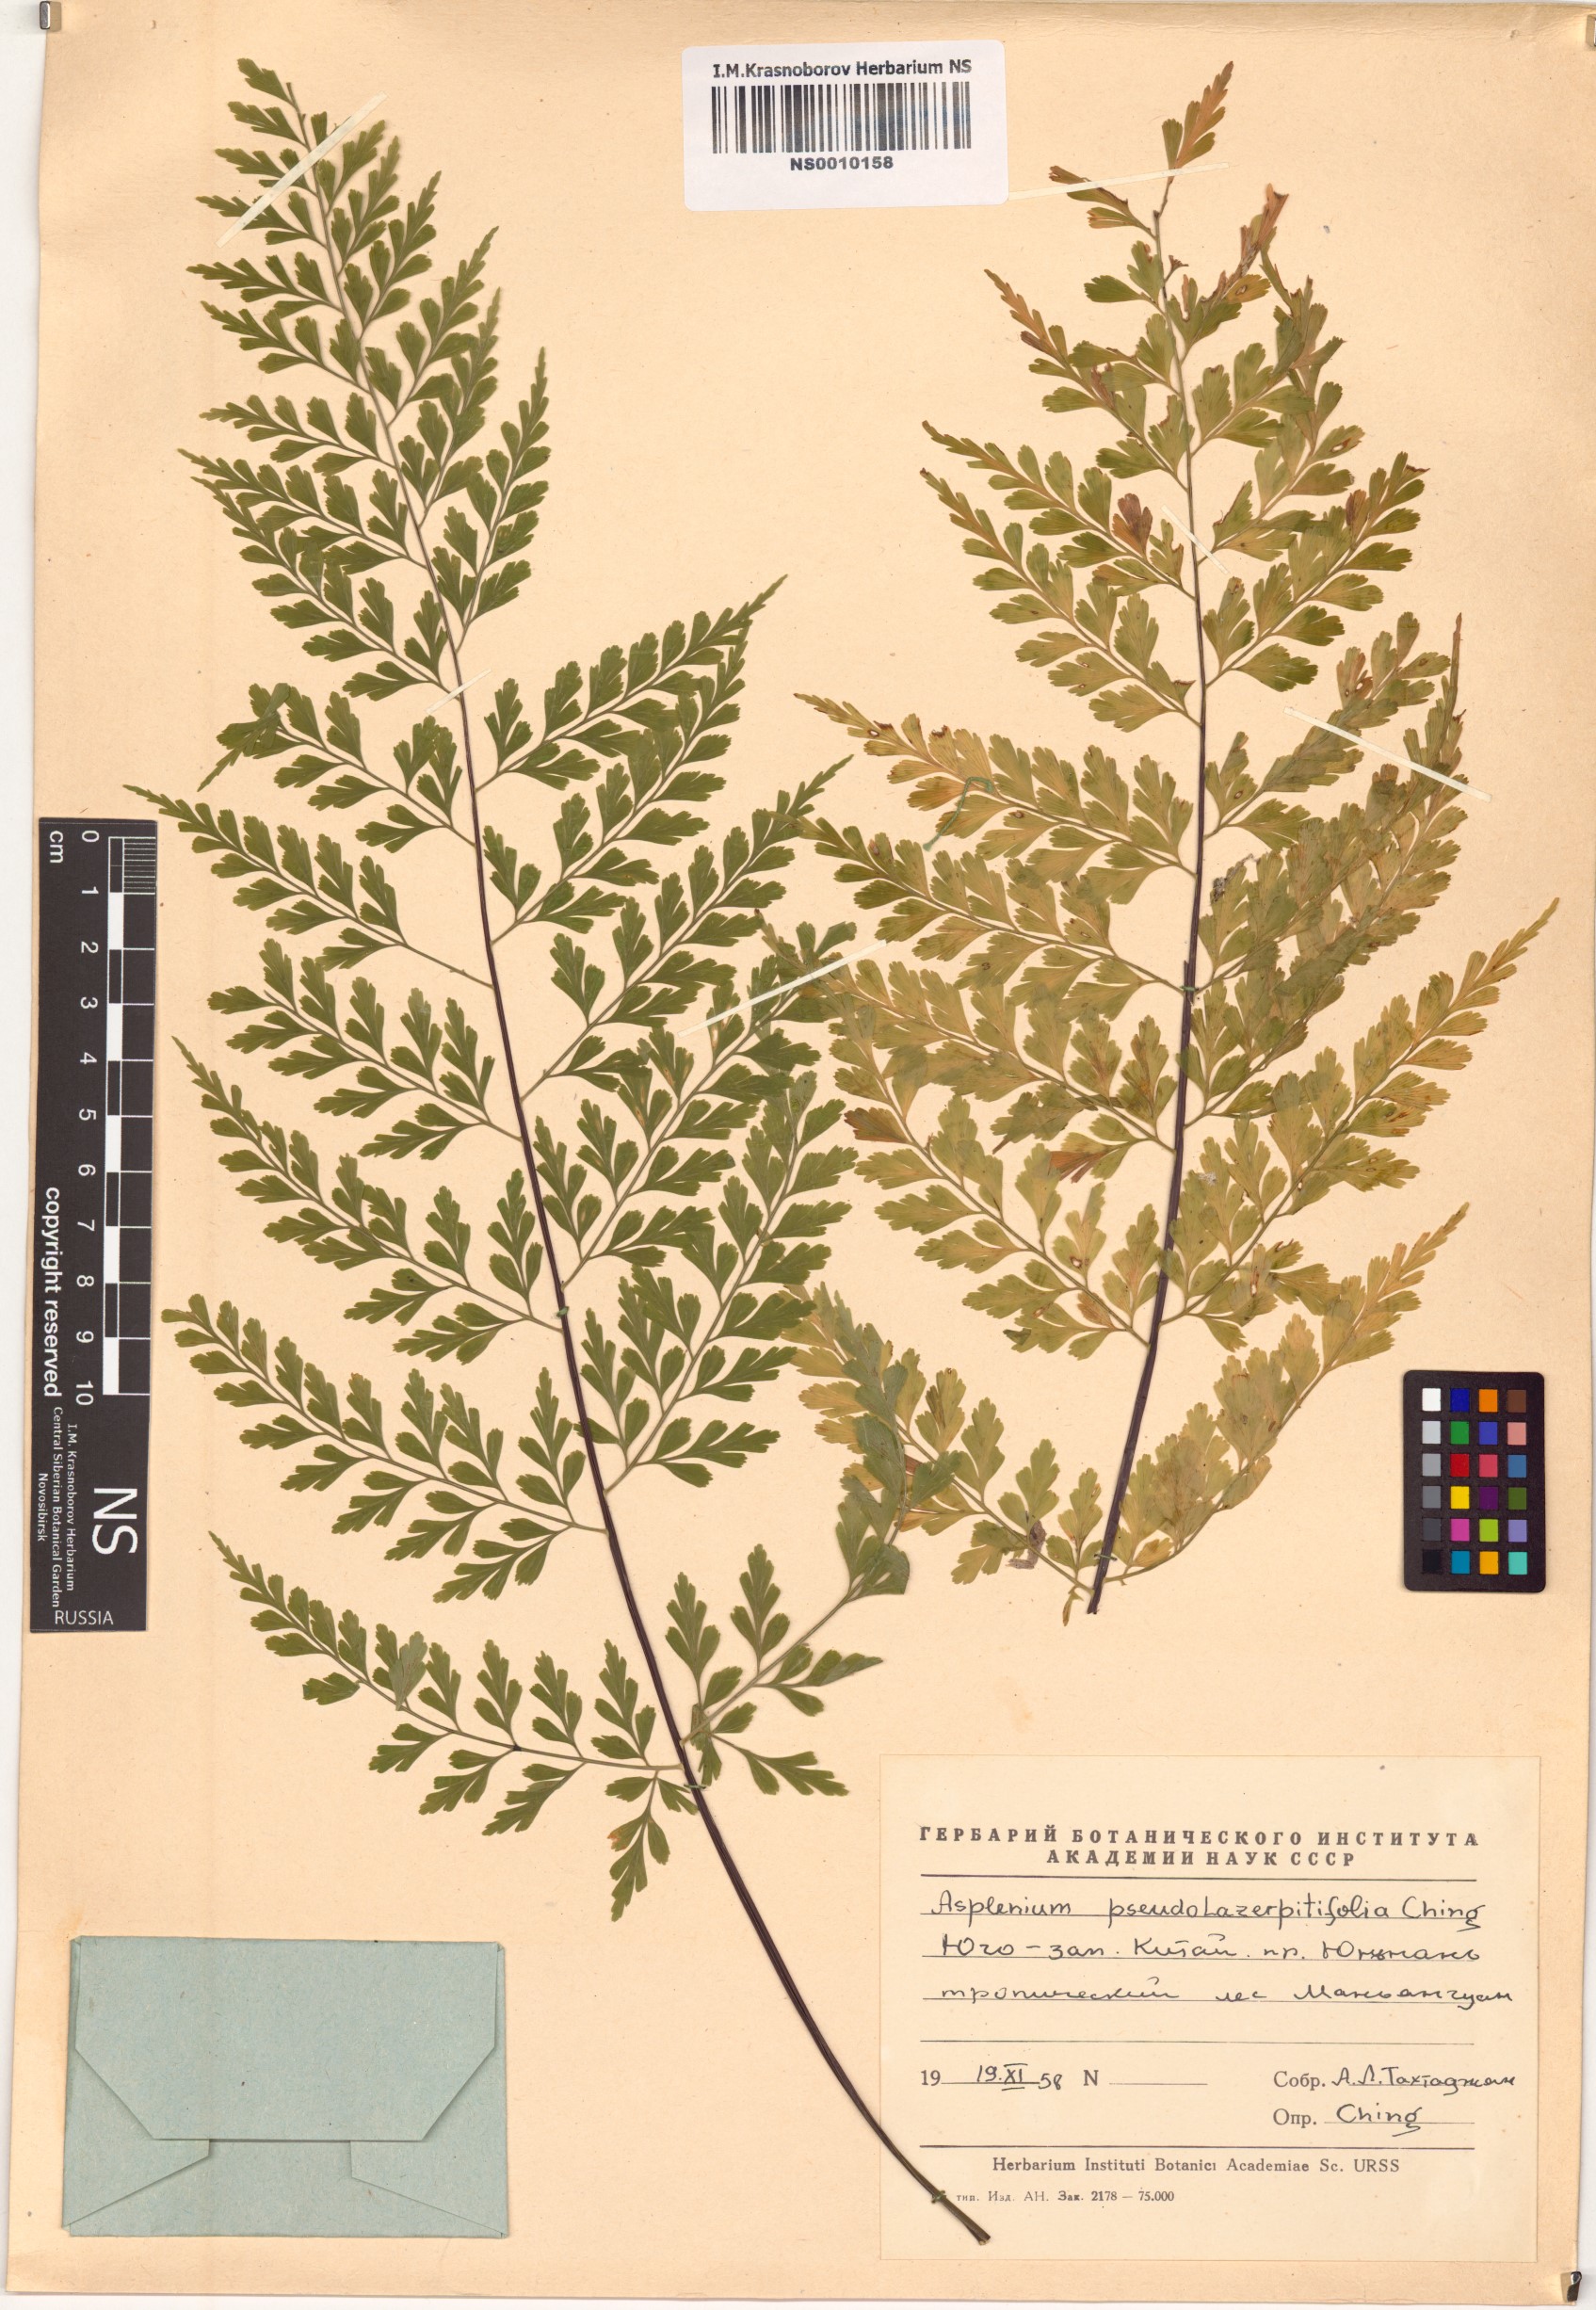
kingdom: Plantae
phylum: Tracheophyta
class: Polypodiopsida
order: Polypodiales
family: Aspleniaceae
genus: Asplenium
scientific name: Asplenium pseudolaserpitiifolium
